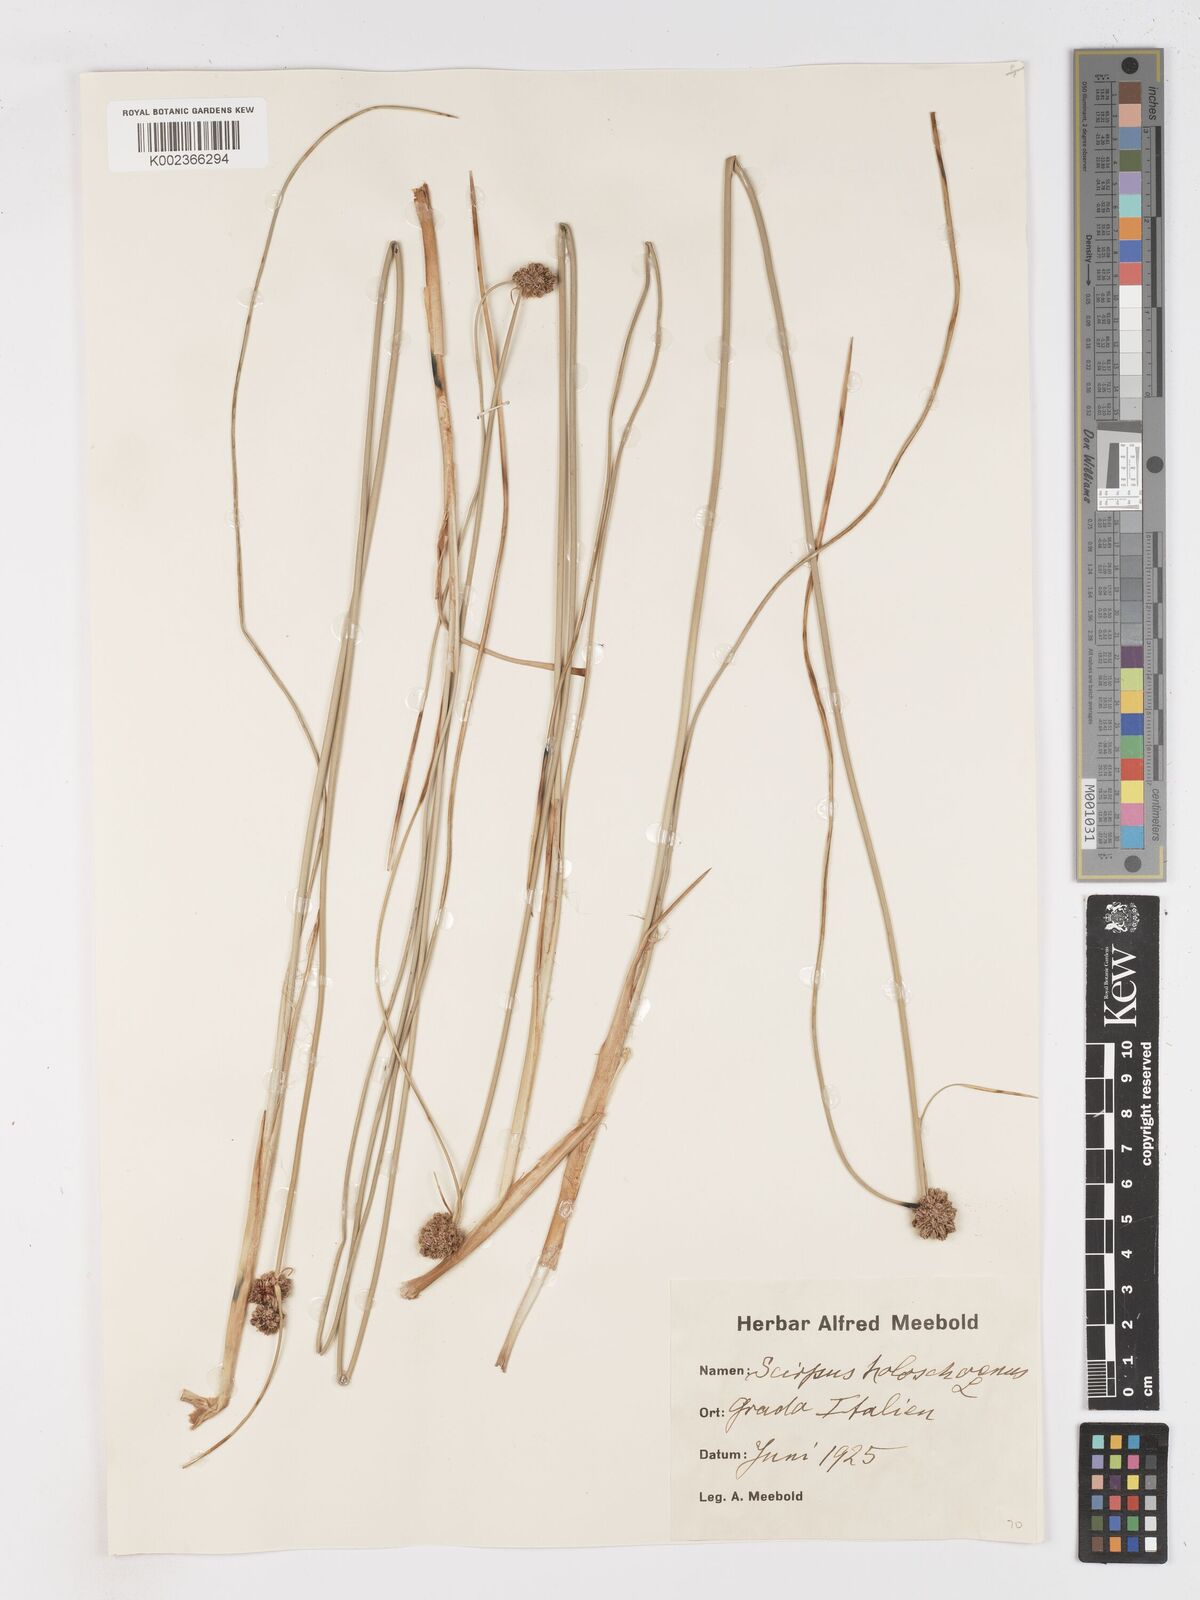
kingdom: Plantae
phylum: Tracheophyta
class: Liliopsida
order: Poales
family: Cyperaceae
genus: Scirpoides
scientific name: Scirpoides holoschoenus
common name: Round-headed club-rush
